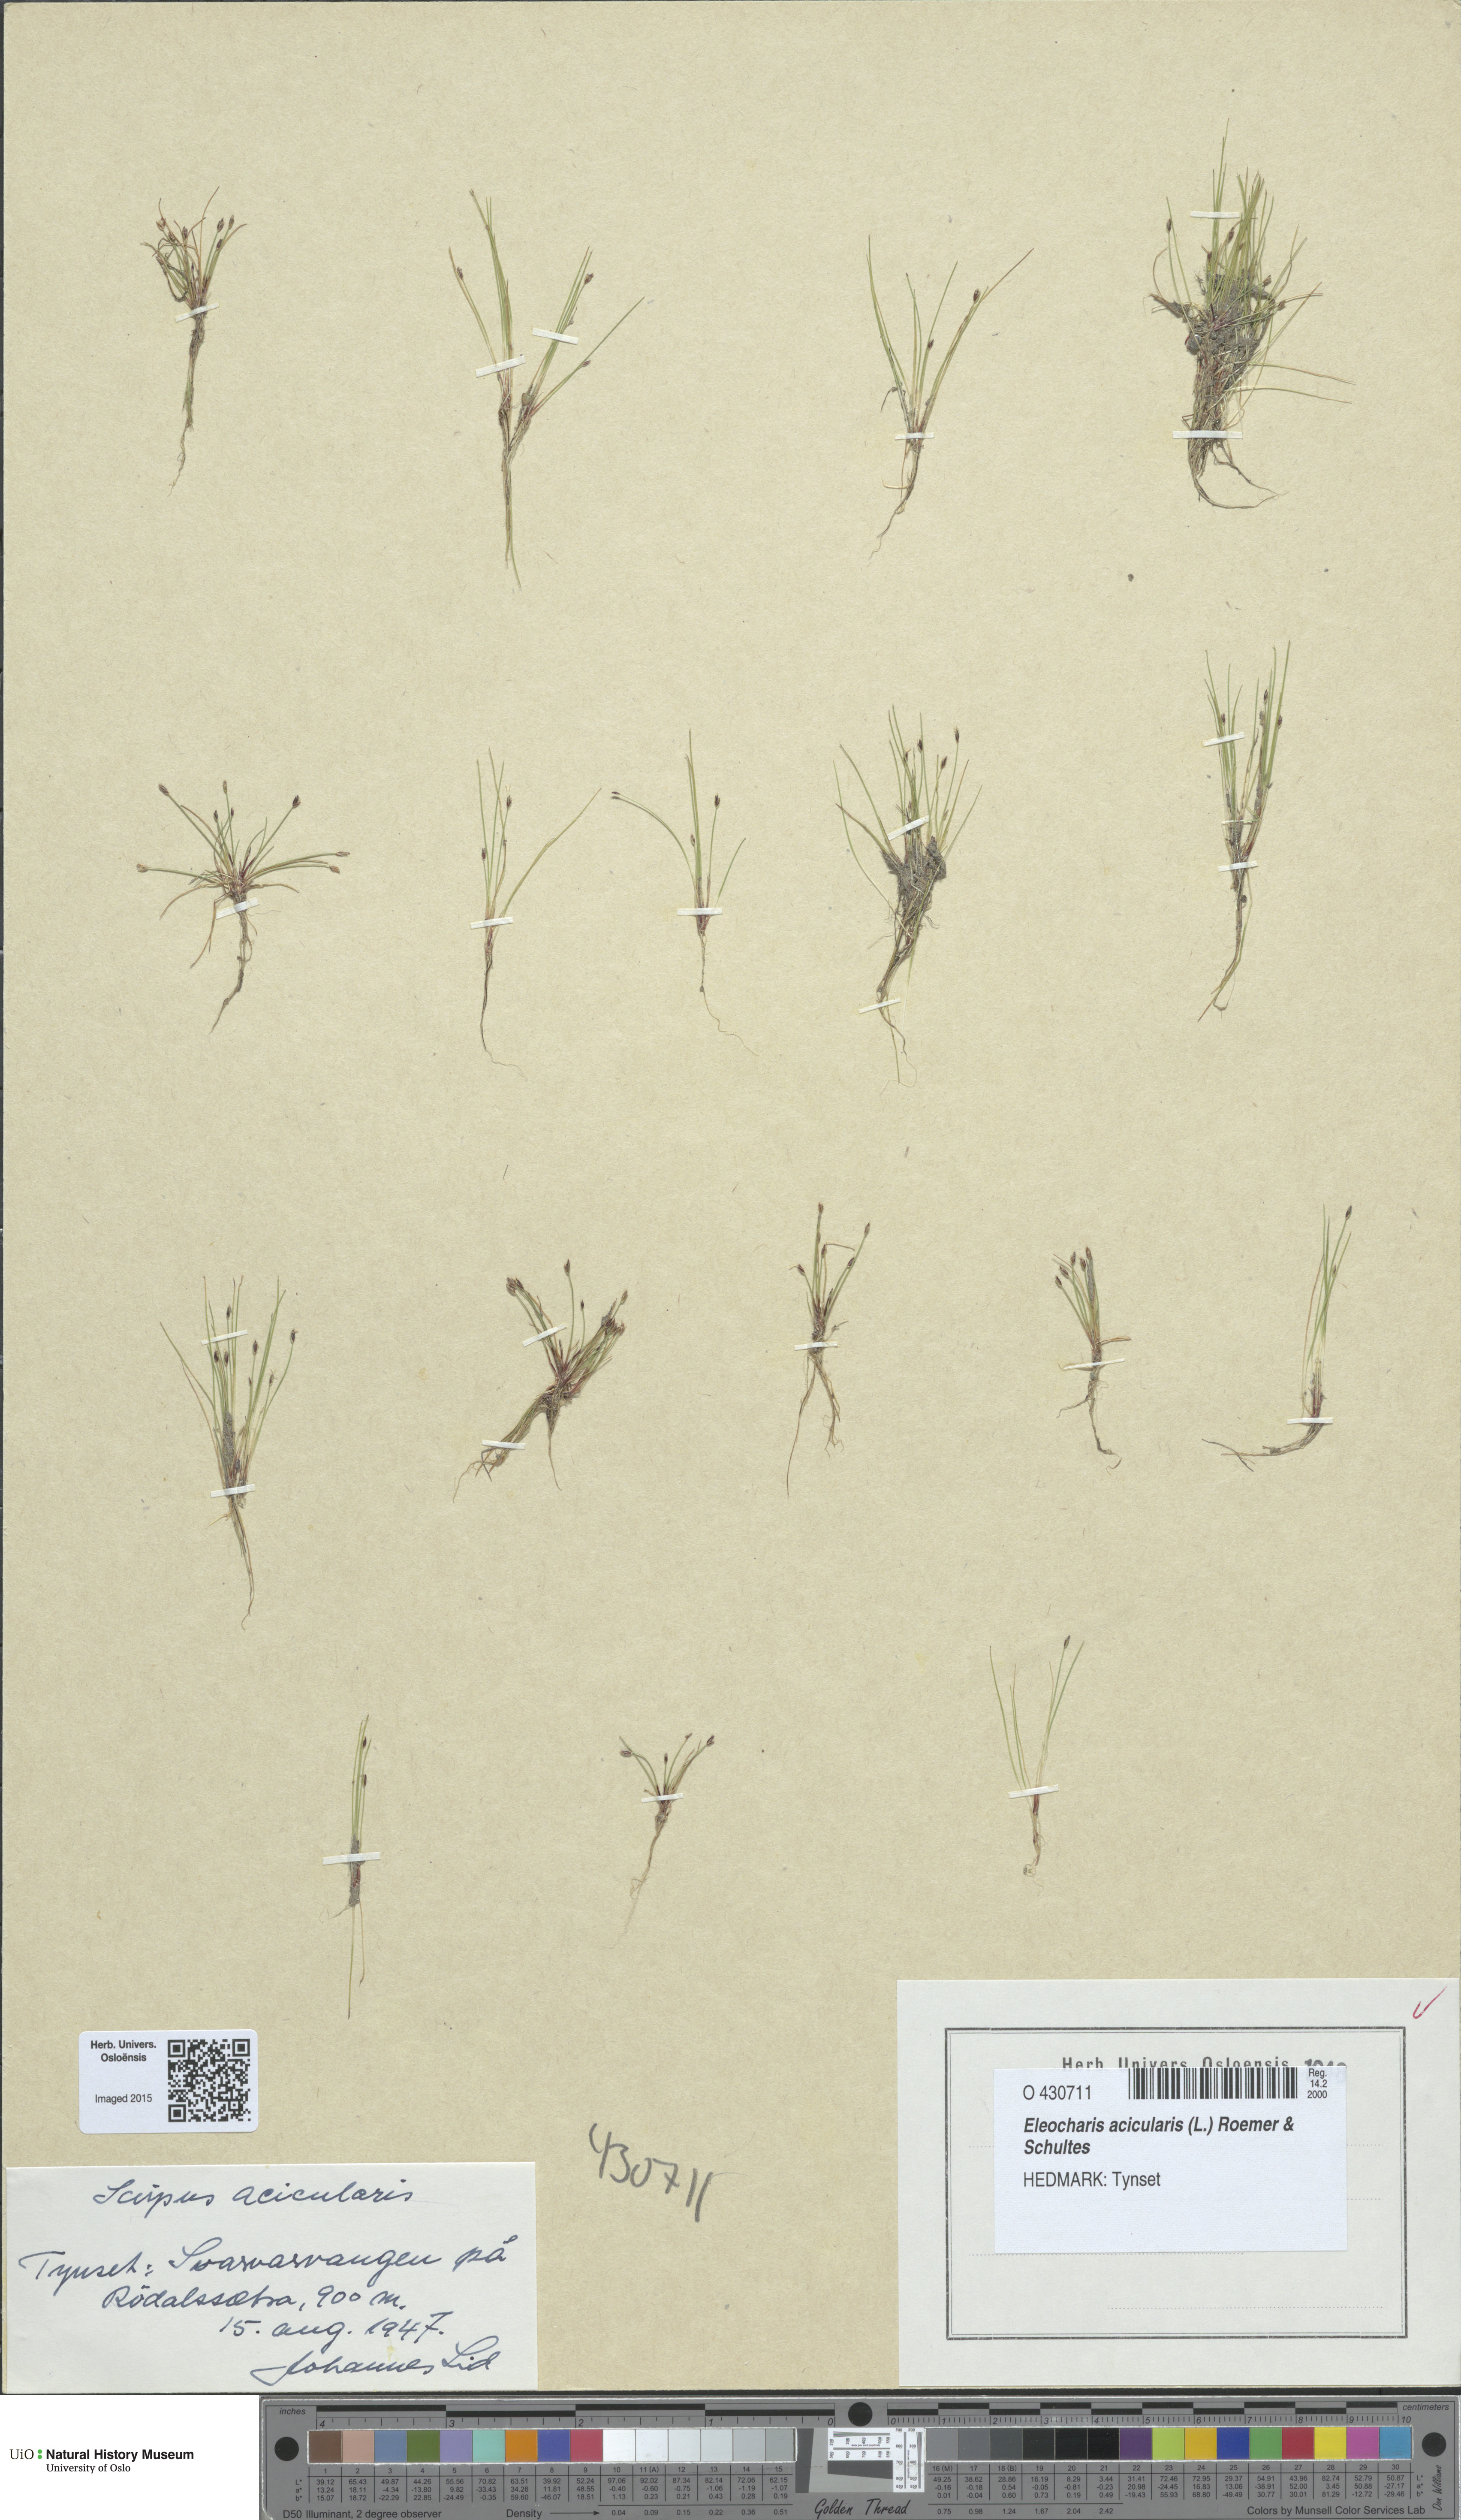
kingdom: Plantae
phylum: Tracheophyta
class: Liliopsida
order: Poales
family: Cyperaceae
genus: Eleocharis
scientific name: Eleocharis acicularis
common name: Needle spike-rush
